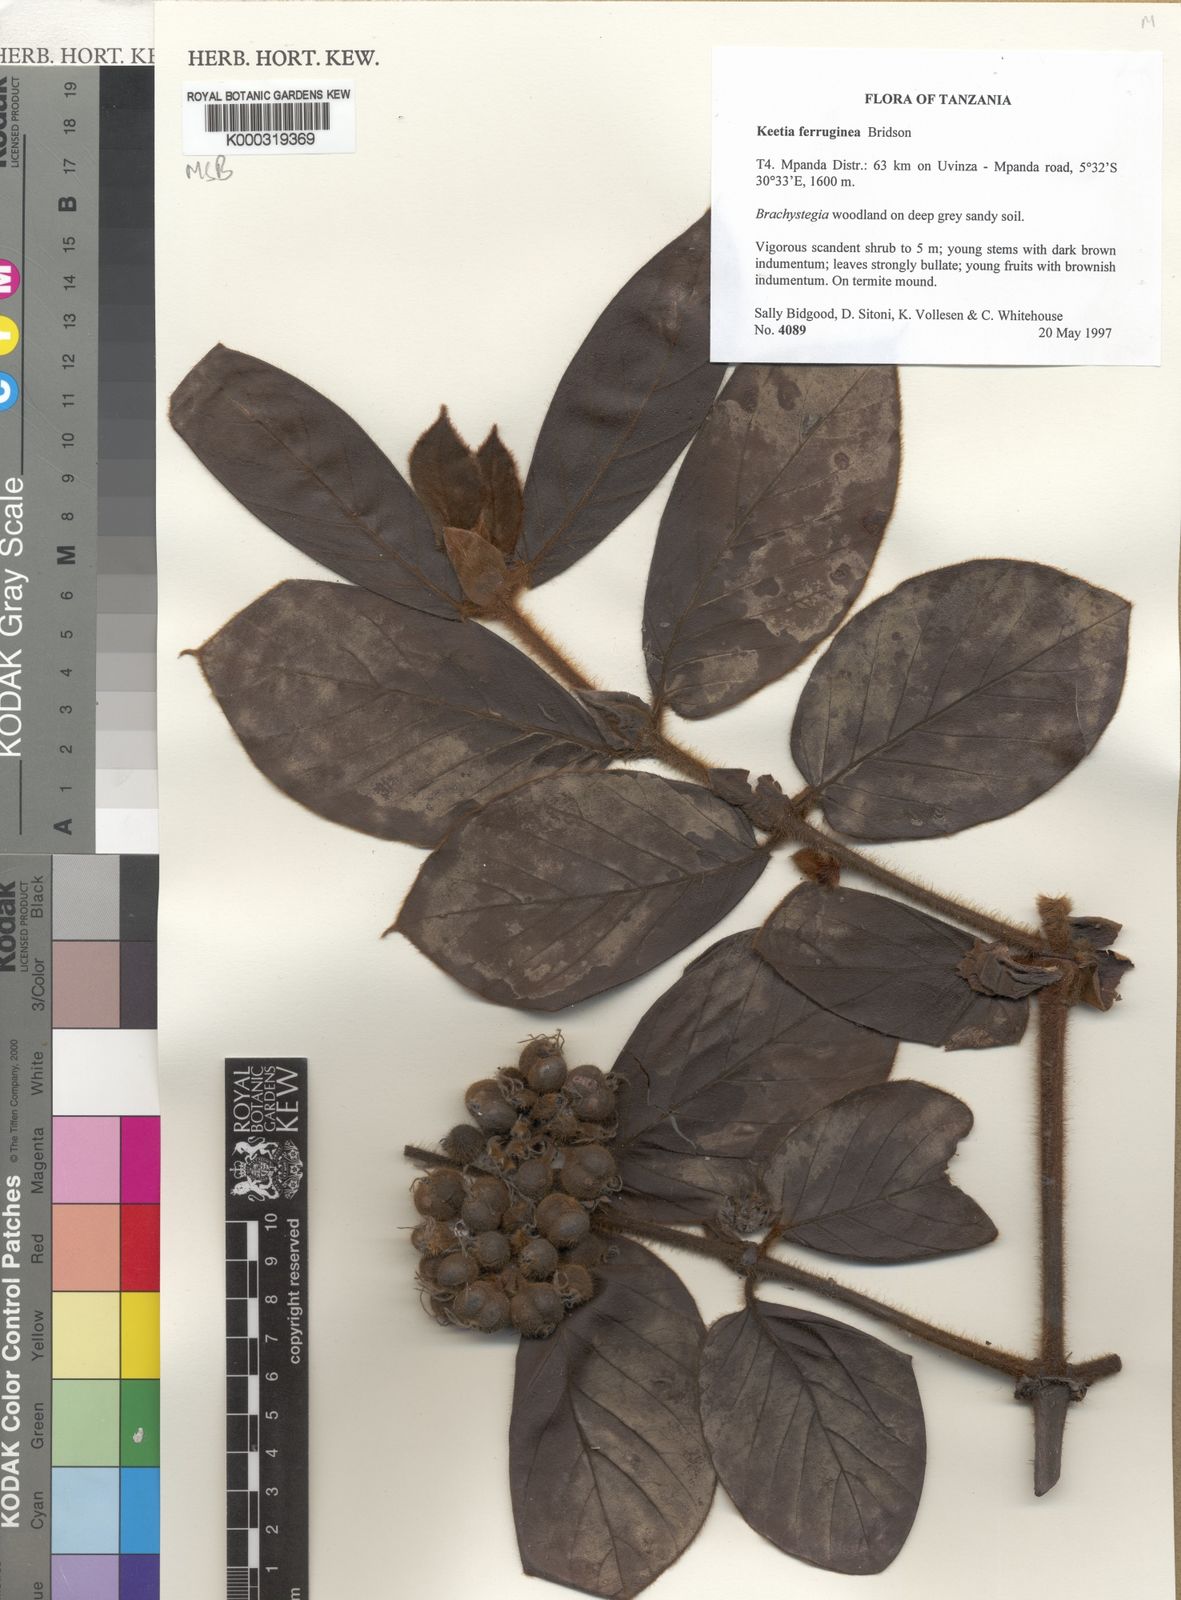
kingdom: Plantae
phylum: Tracheophyta
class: Magnoliopsida
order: Gentianales
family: Rubiaceae
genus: Keetia
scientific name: Keetia ferruginea
